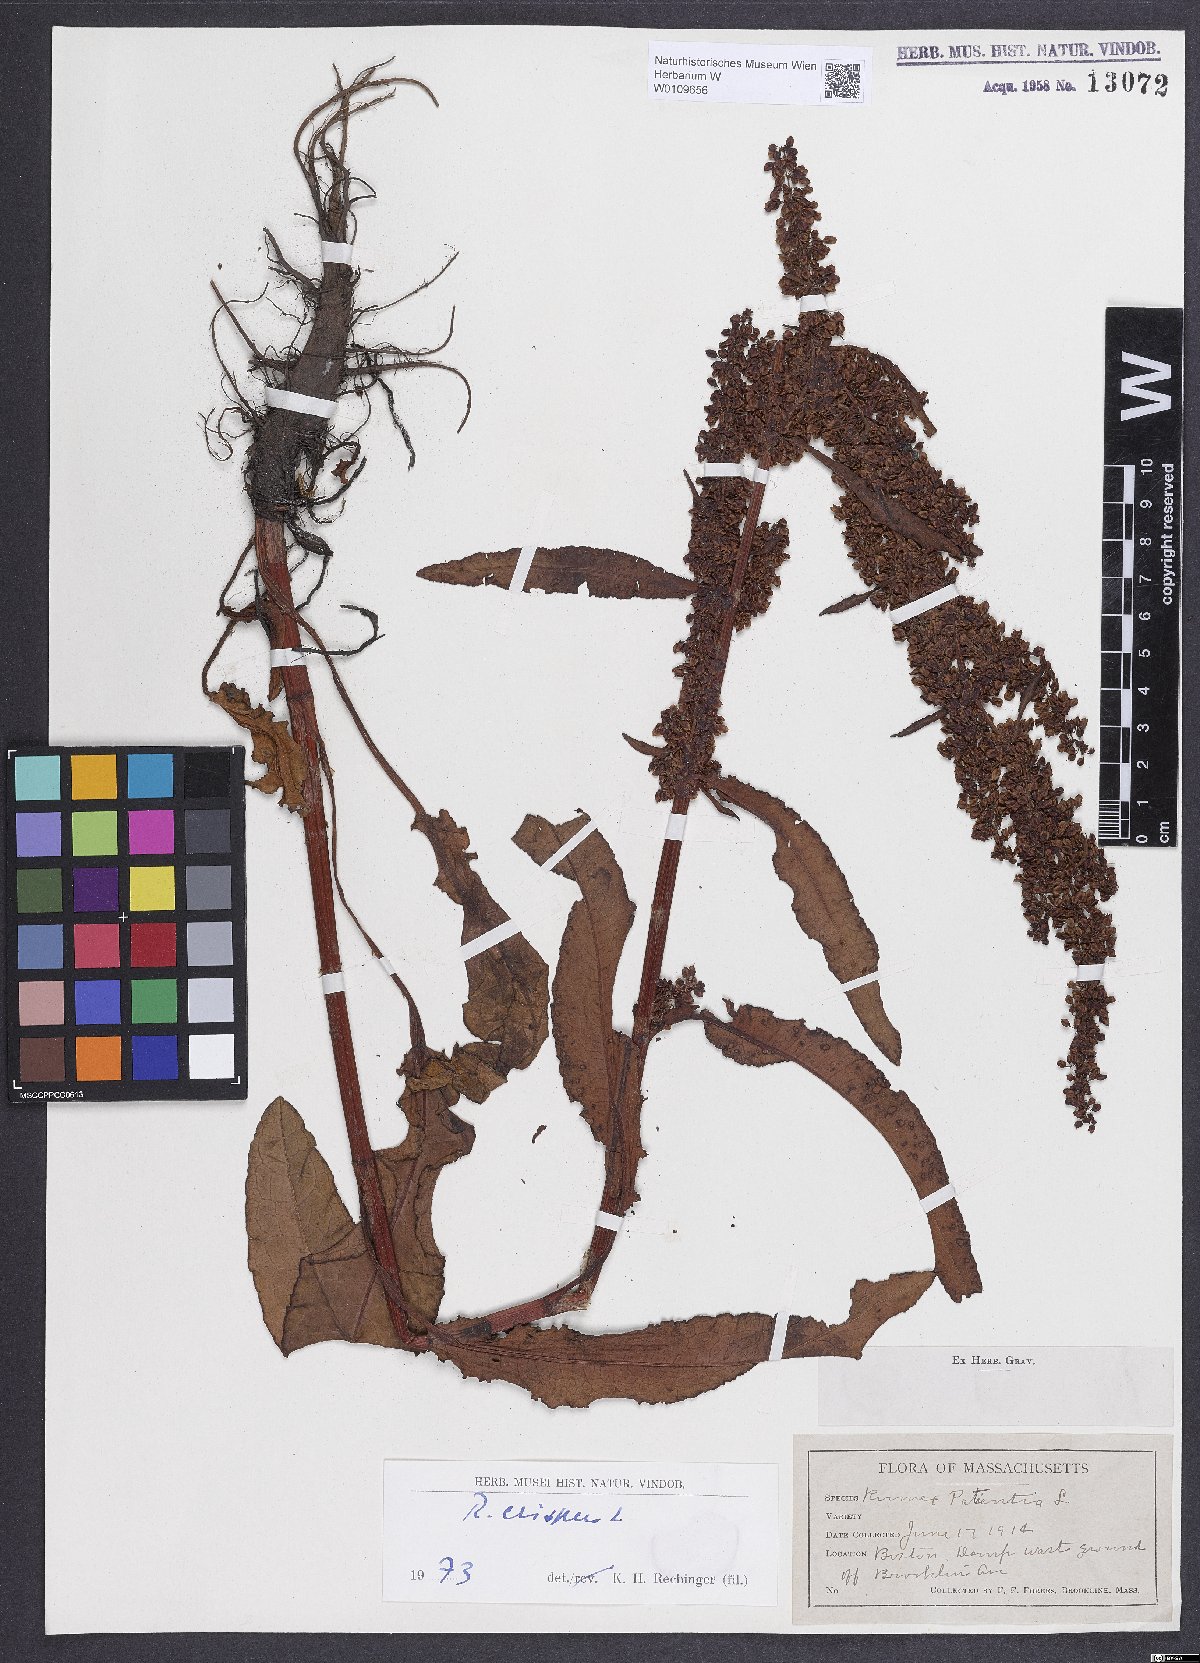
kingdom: Plantae
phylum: Tracheophyta
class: Magnoliopsida
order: Caryophyllales
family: Polygonaceae
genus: Rumex
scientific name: Rumex crispus
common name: Curled dock
